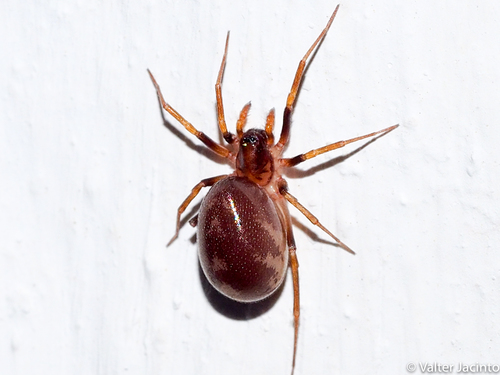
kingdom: Animalia
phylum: Arthropoda
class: Arachnida
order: Araneae
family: Theridiidae
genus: Steatoda
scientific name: Steatoda grossa
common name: False black widow
